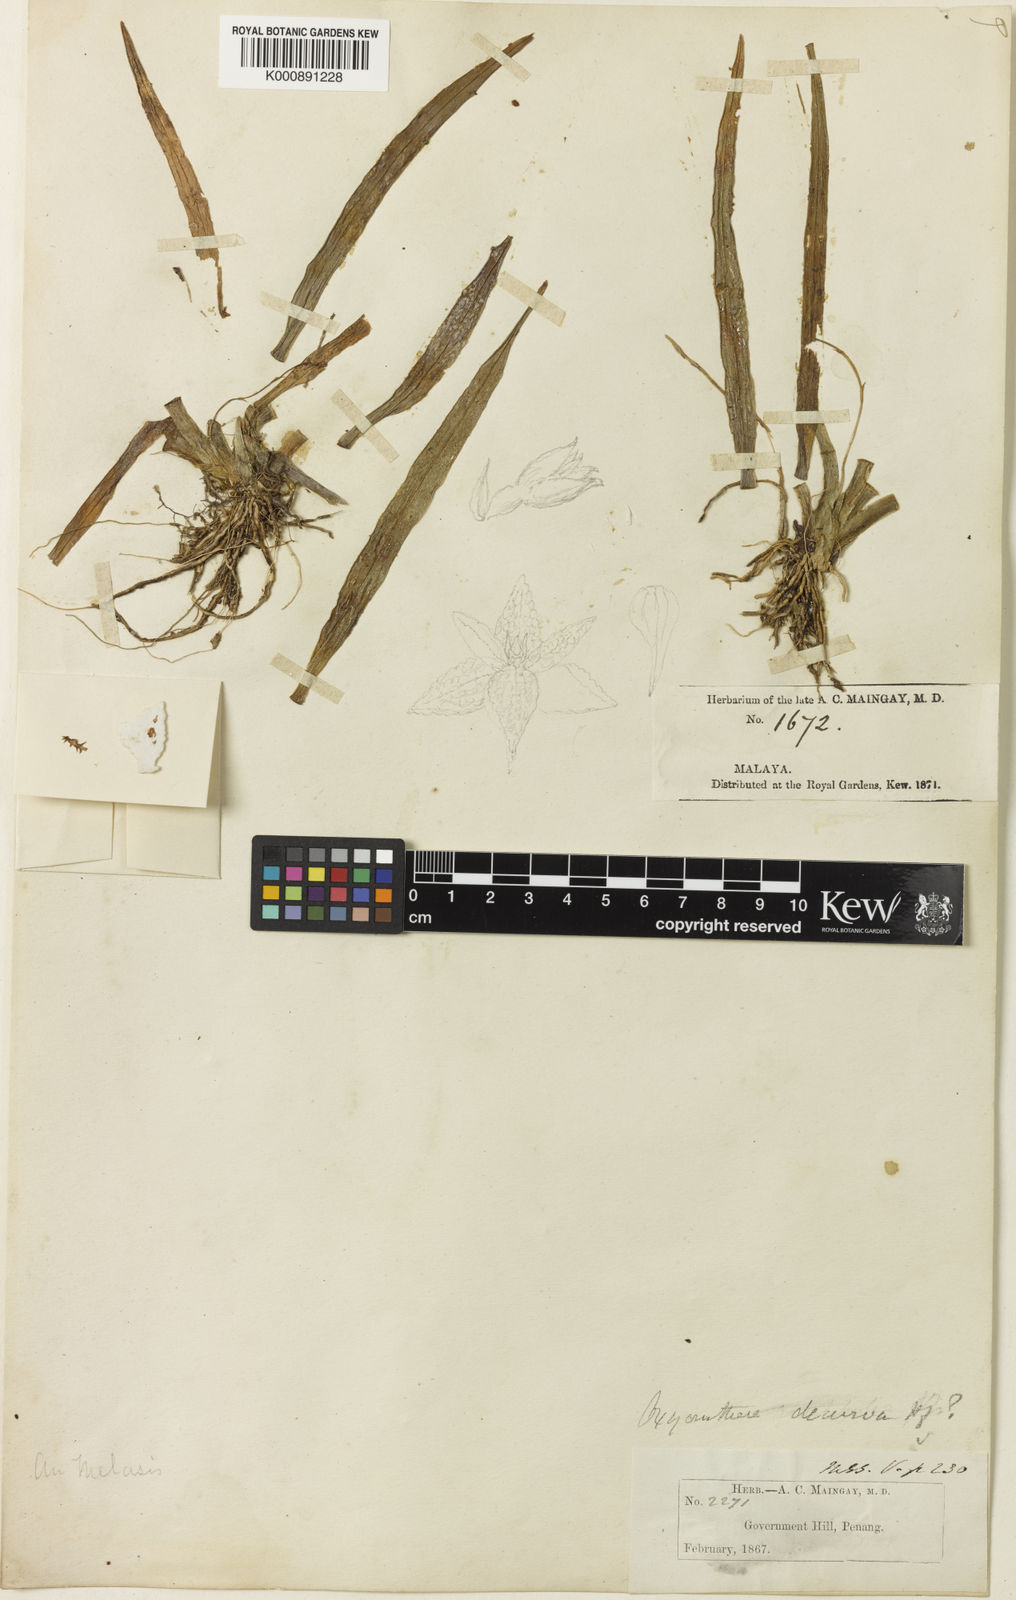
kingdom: Plantae
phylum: Tracheophyta
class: Liliopsida
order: Asparagales
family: Orchidaceae
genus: Thelasis
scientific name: Thelasis micrantha
